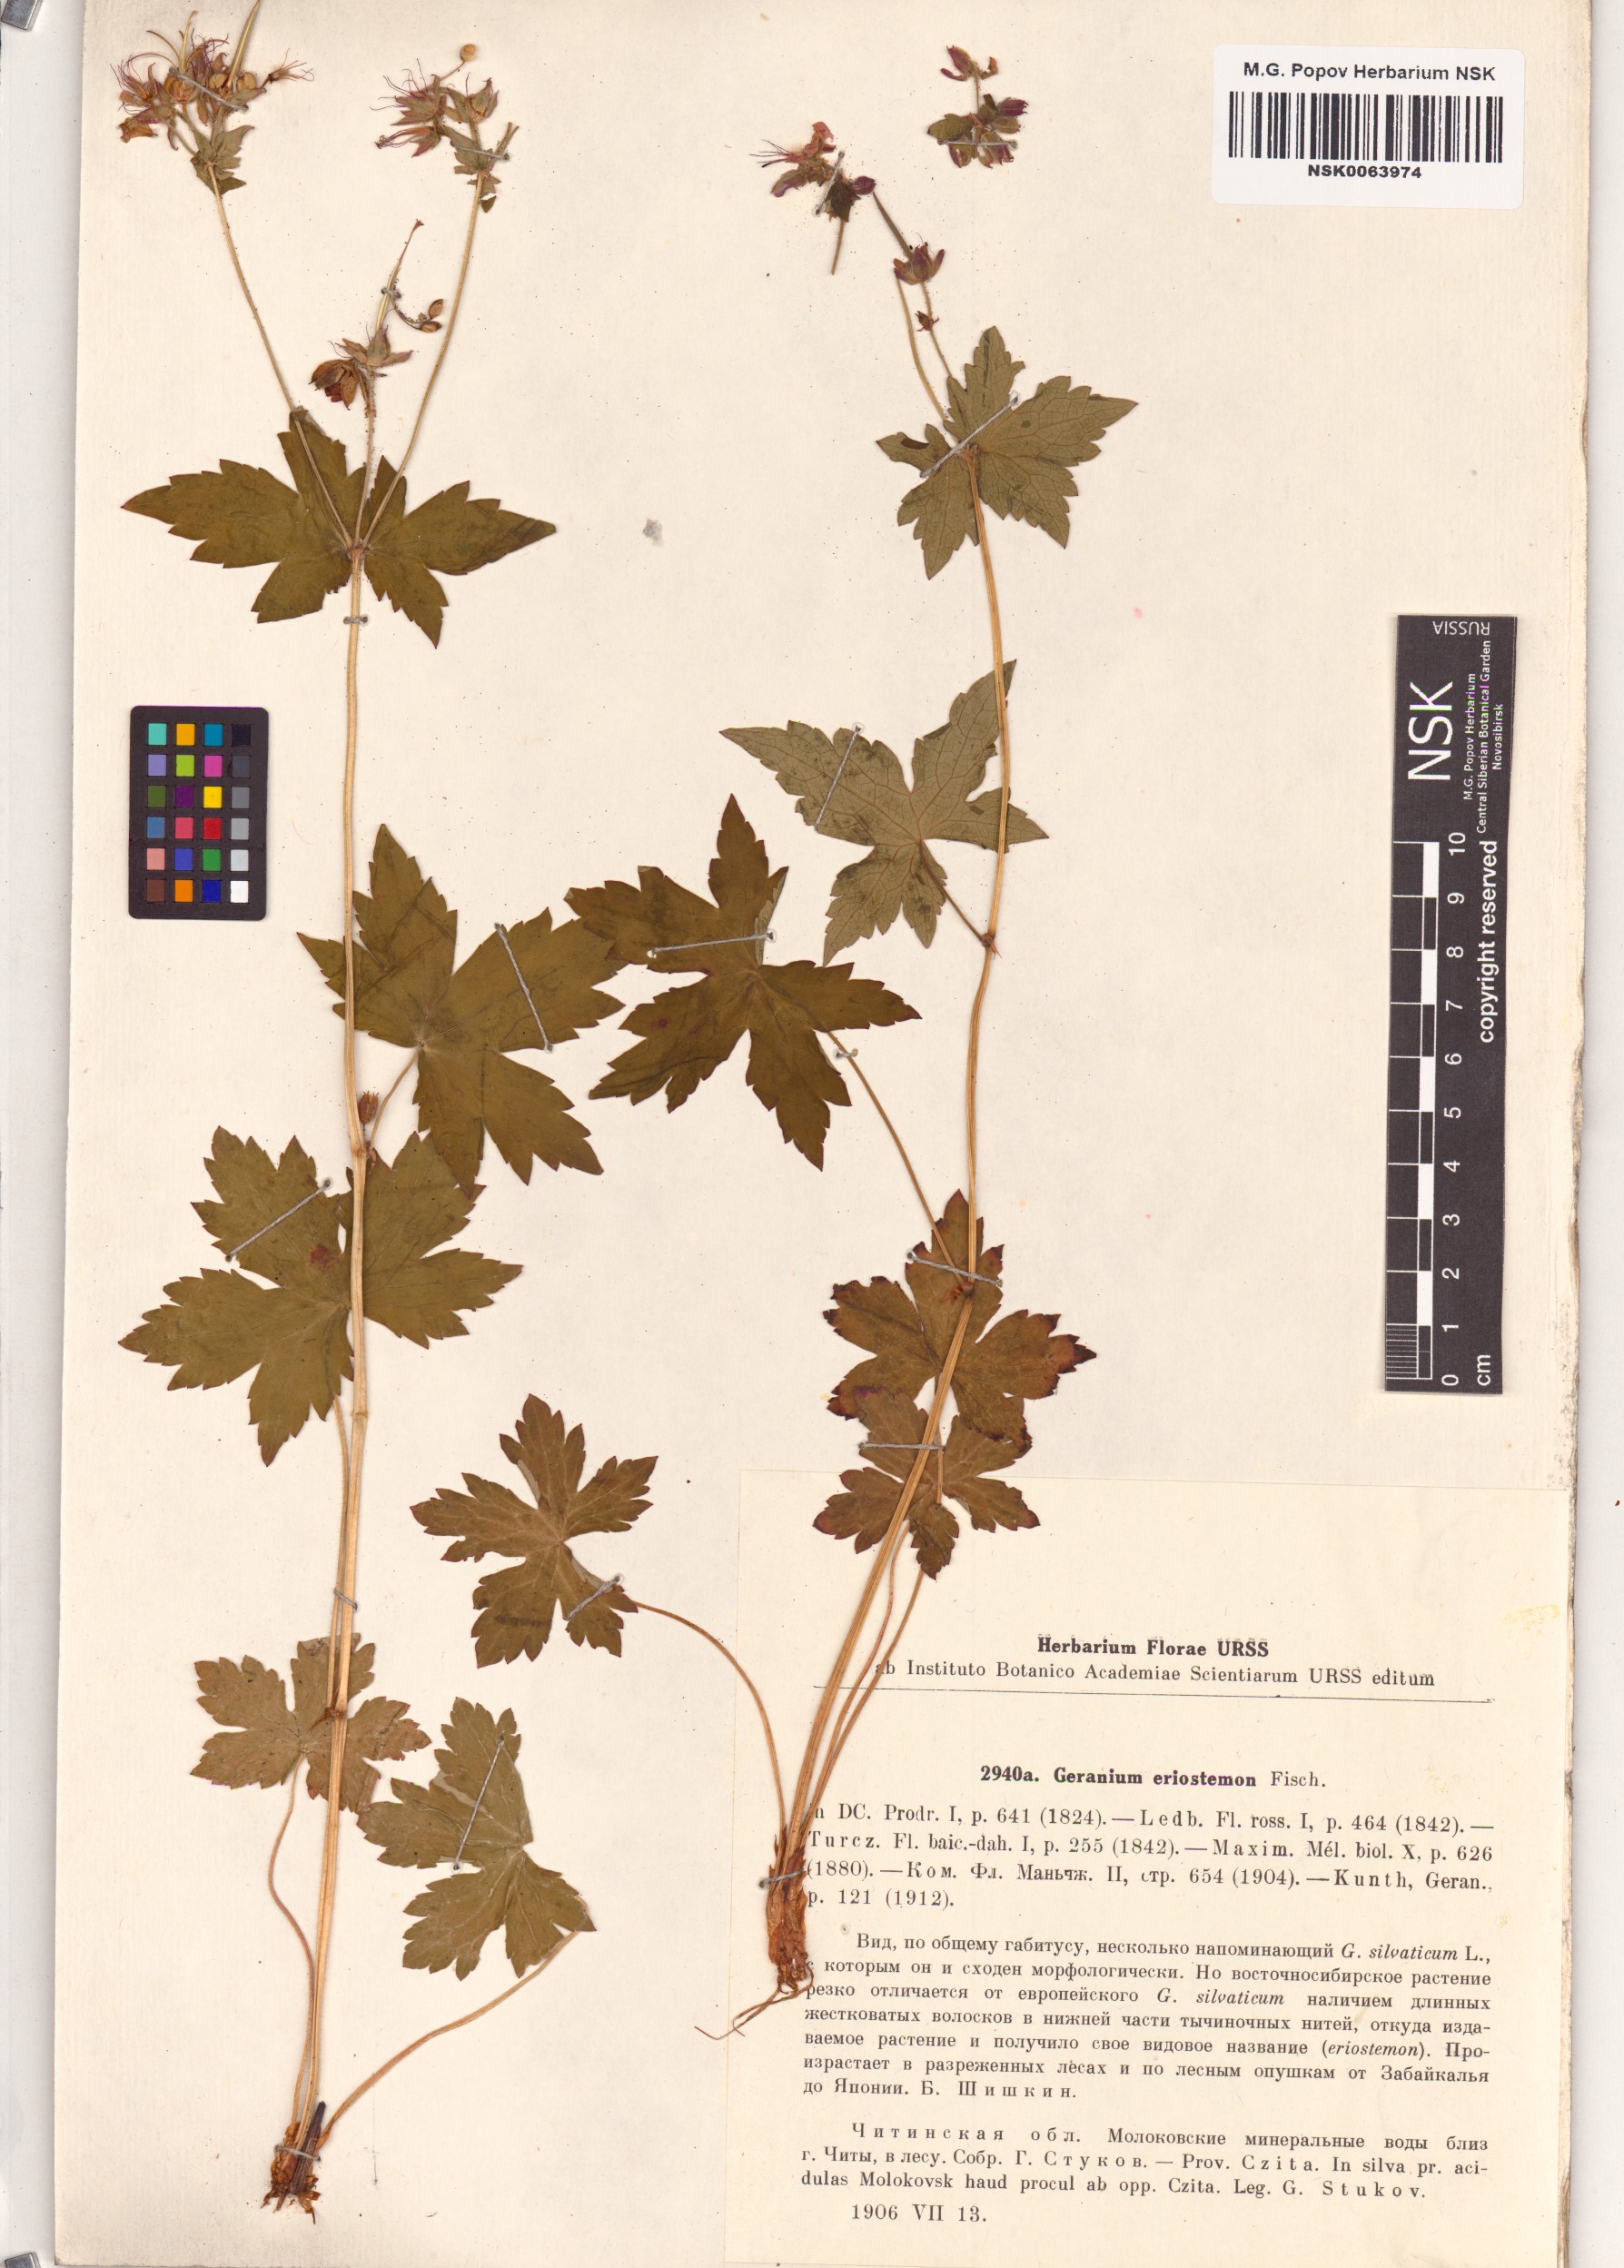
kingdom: Plantae
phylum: Tracheophyta
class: Magnoliopsida
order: Geraniales
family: Geraniaceae
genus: Geranium
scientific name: Geranium platyanthum
